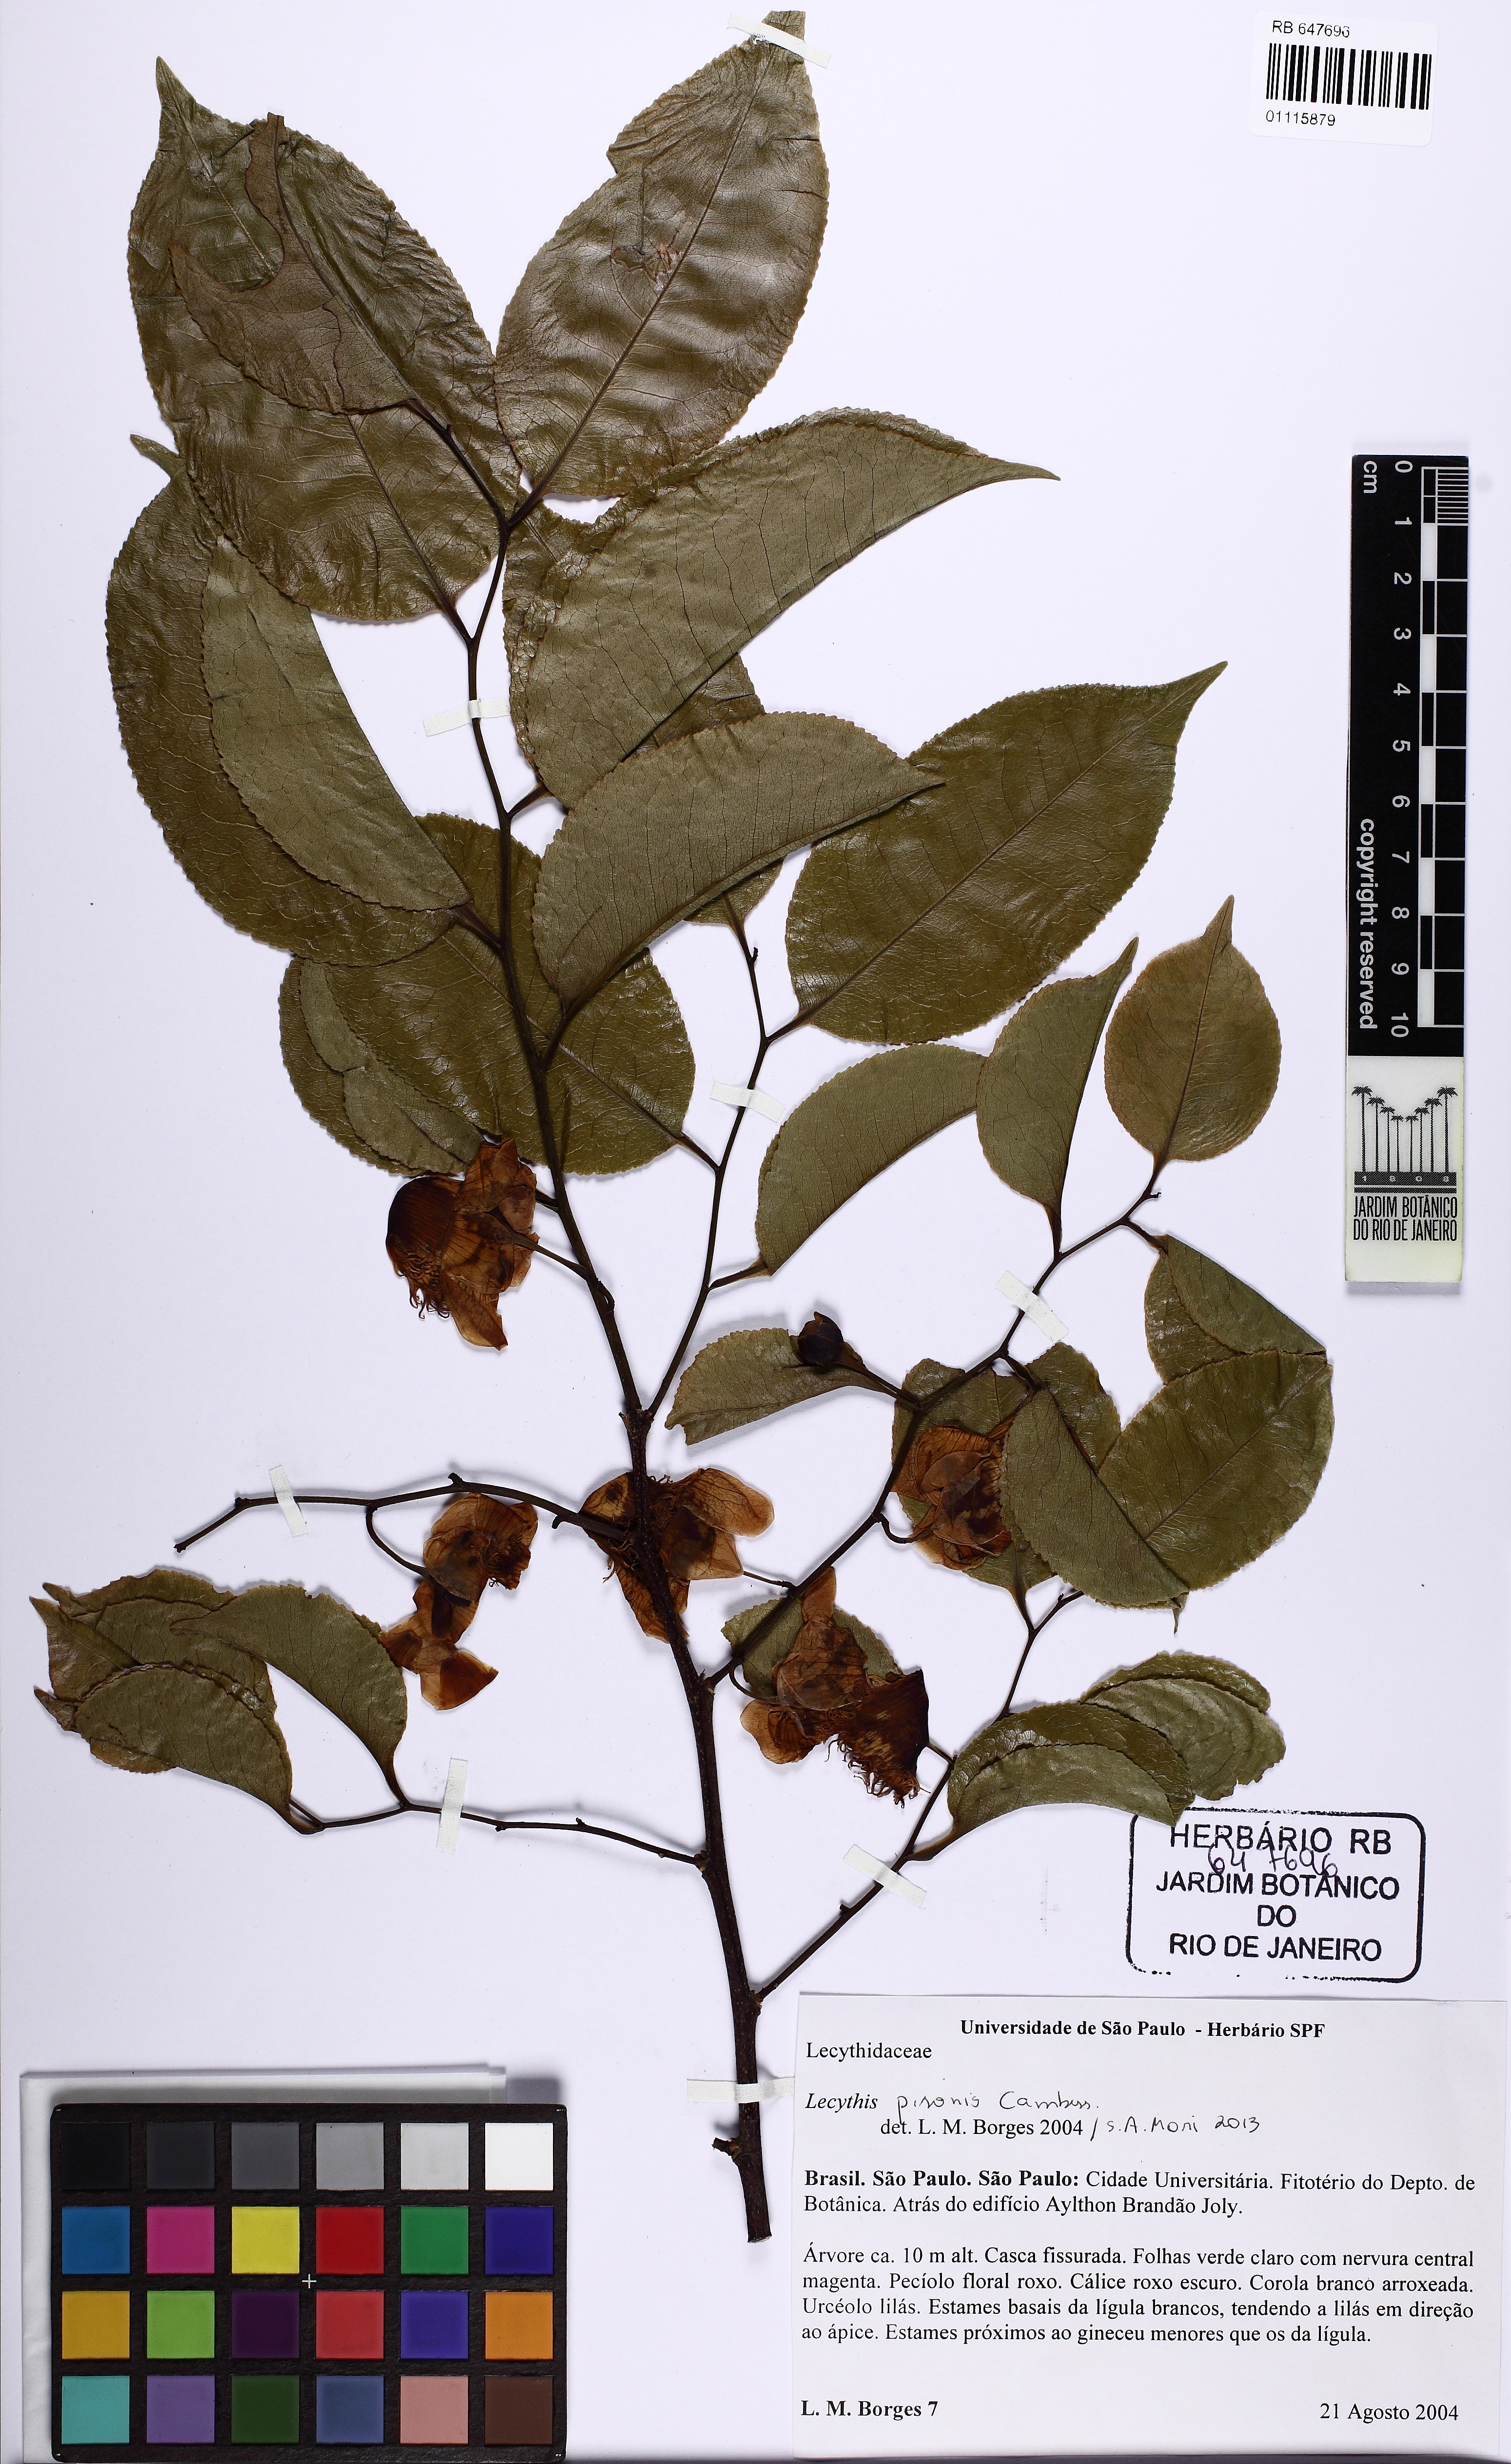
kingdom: Plantae
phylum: Tracheophyta
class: Magnoliopsida
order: Ericales
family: Lecythidaceae
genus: Lecythis
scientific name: Lecythis pisonis
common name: Paradise-nut
